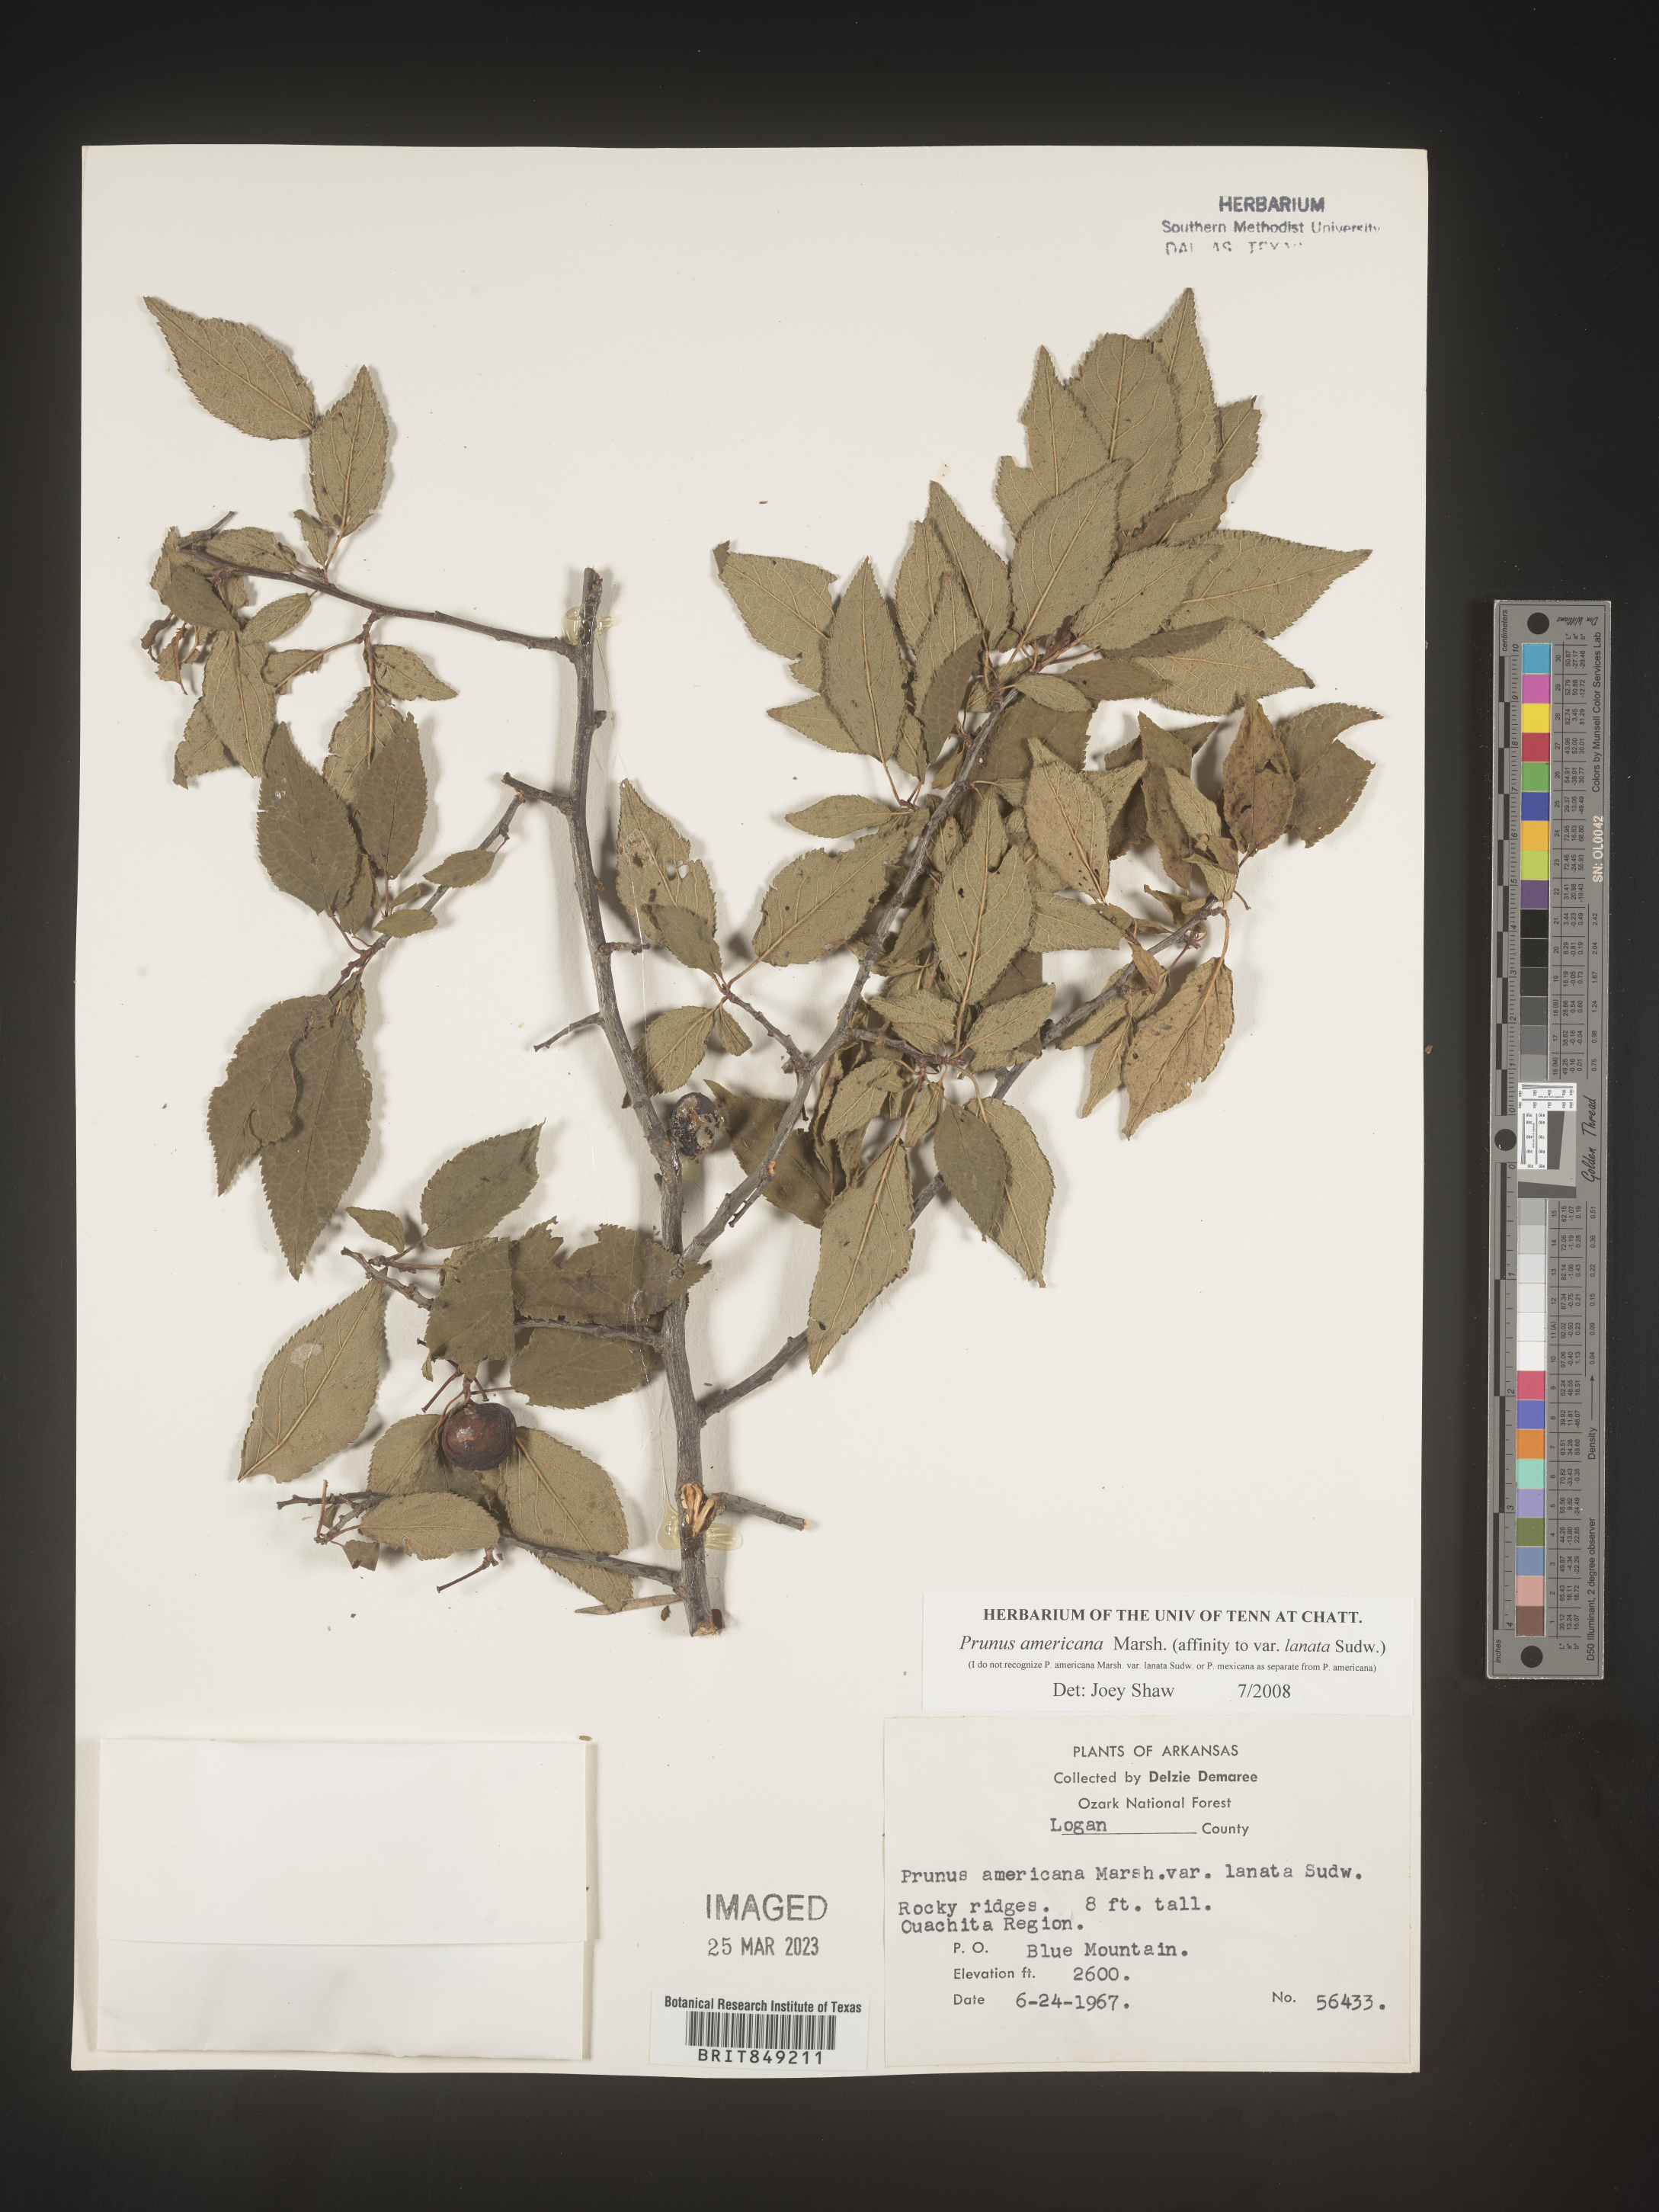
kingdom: Plantae
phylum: Tracheophyta
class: Magnoliopsida
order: Rosales
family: Rosaceae
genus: Prunus
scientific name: Prunus americana
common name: American plum
